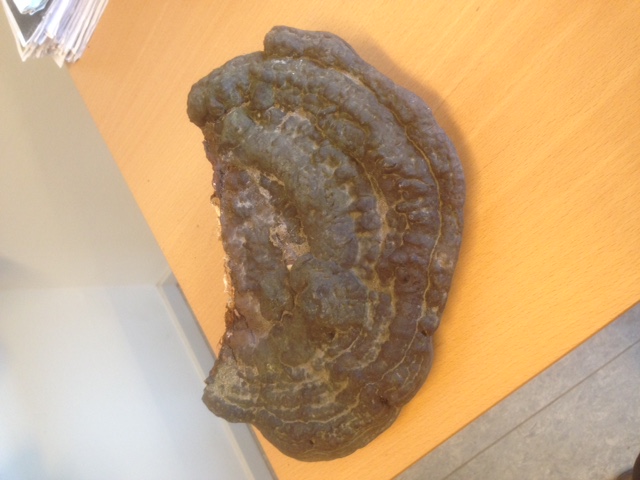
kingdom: Fungi
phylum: Basidiomycota
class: Agaricomycetes
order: Polyporales
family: Polyporaceae
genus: Ganoderma
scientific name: Ganoderma adspersum
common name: grov lakporesvamp
